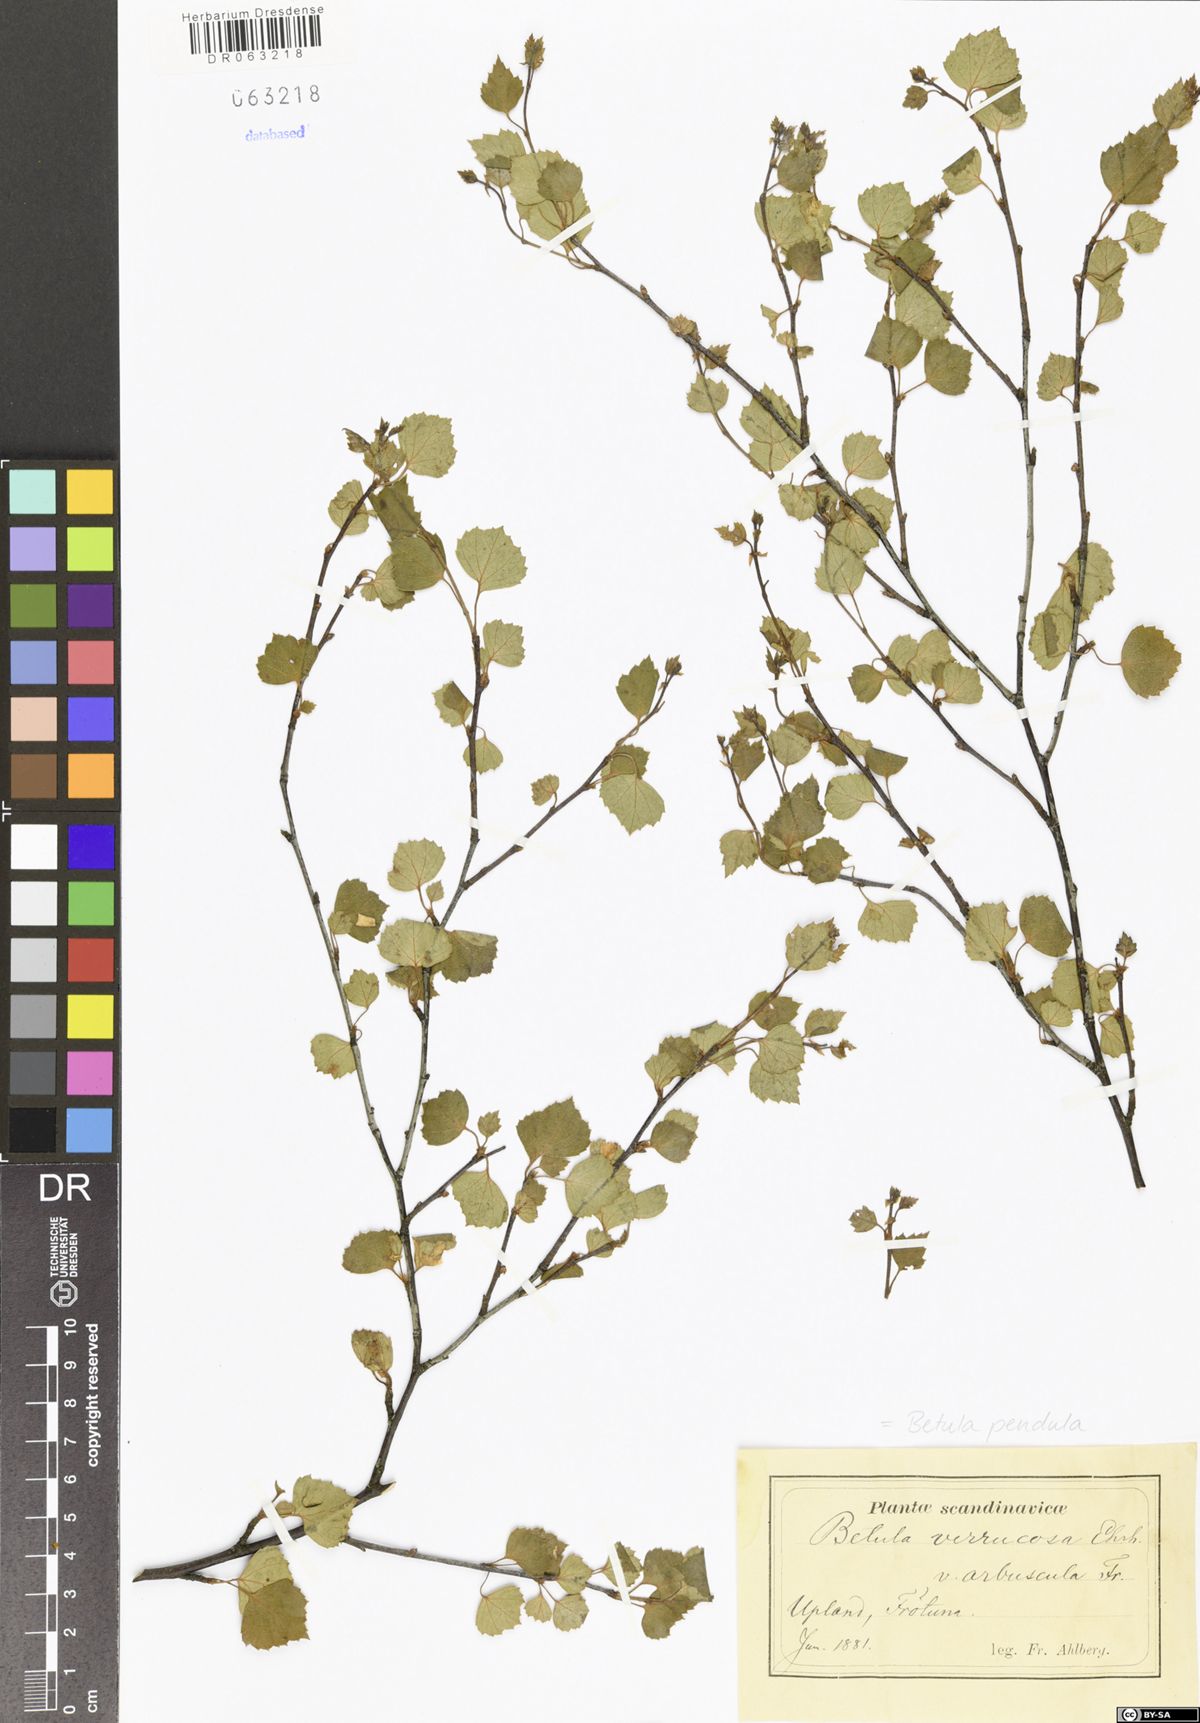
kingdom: Plantae
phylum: Tracheophyta
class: Magnoliopsida
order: Fagales
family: Betulaceae
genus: Betula
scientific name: Betula pendula
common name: Silver birch
